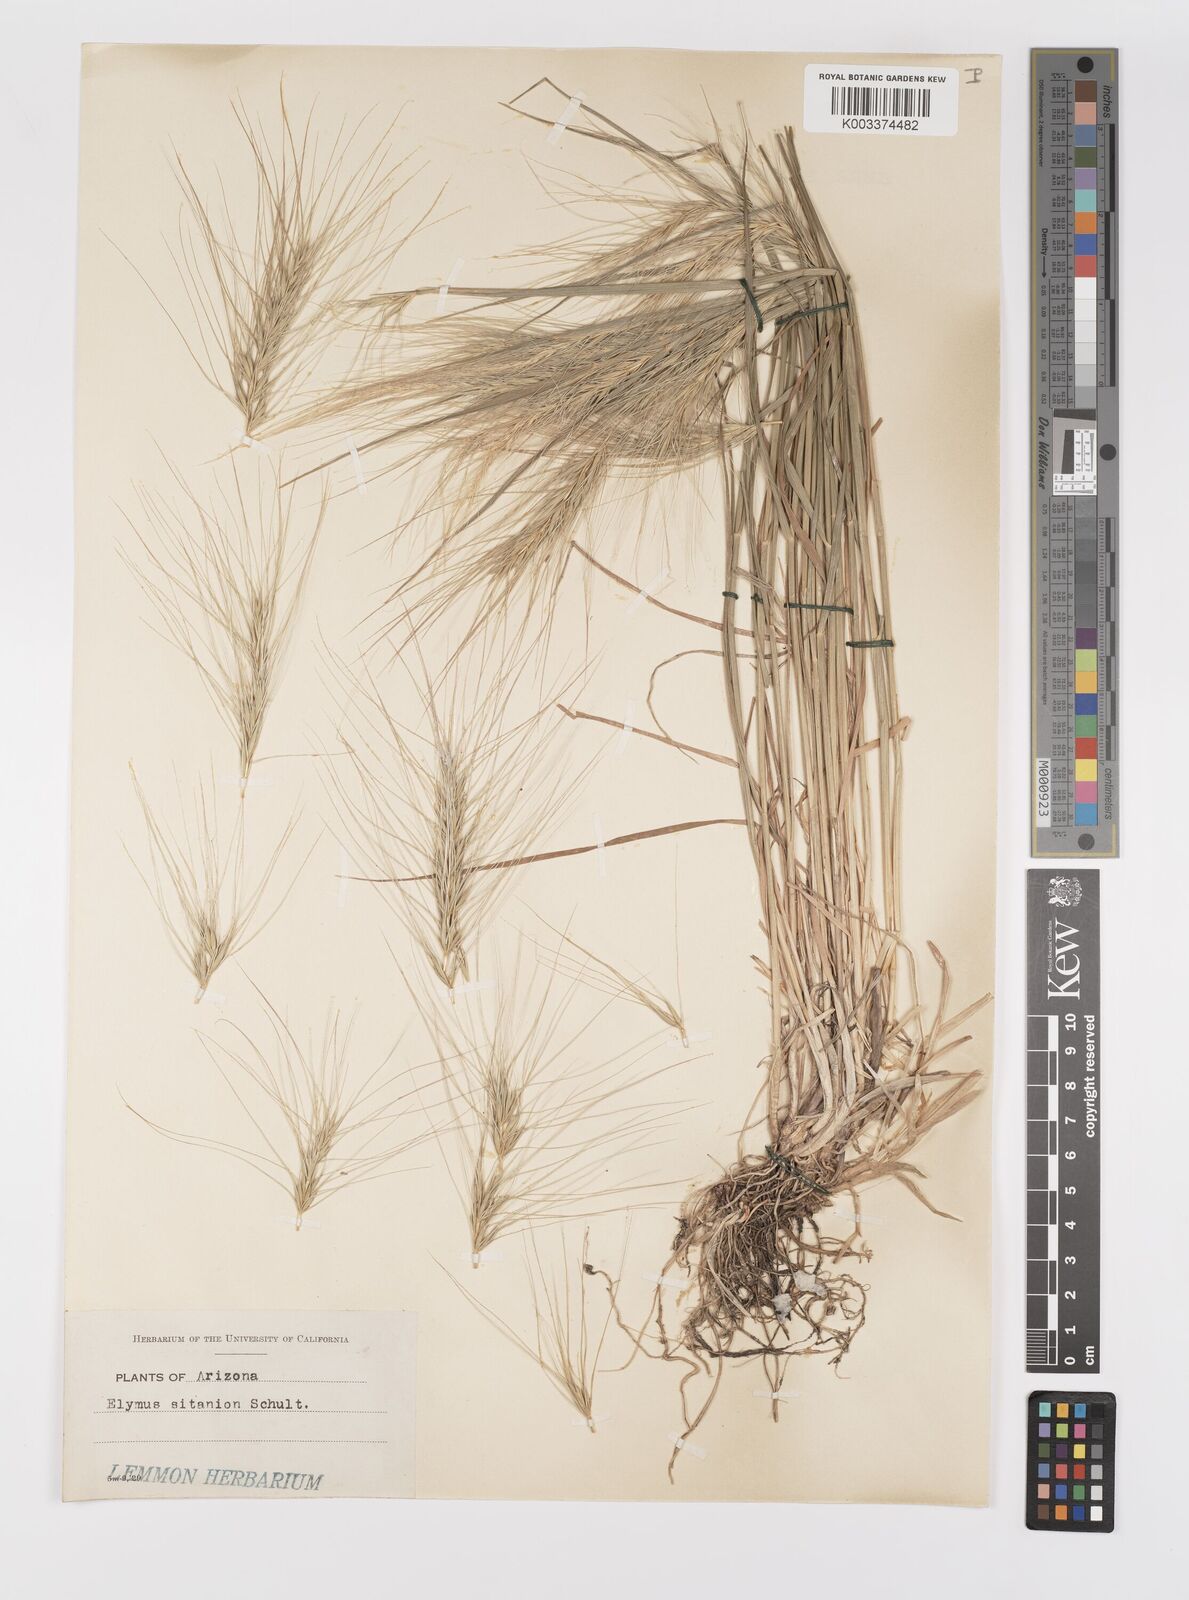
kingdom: Plantae
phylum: Tracheophyta
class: Liliopsida
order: Poales
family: Poaceae
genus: Elymus
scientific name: Elymus elymoides
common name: Bottlebrush squirreltail
